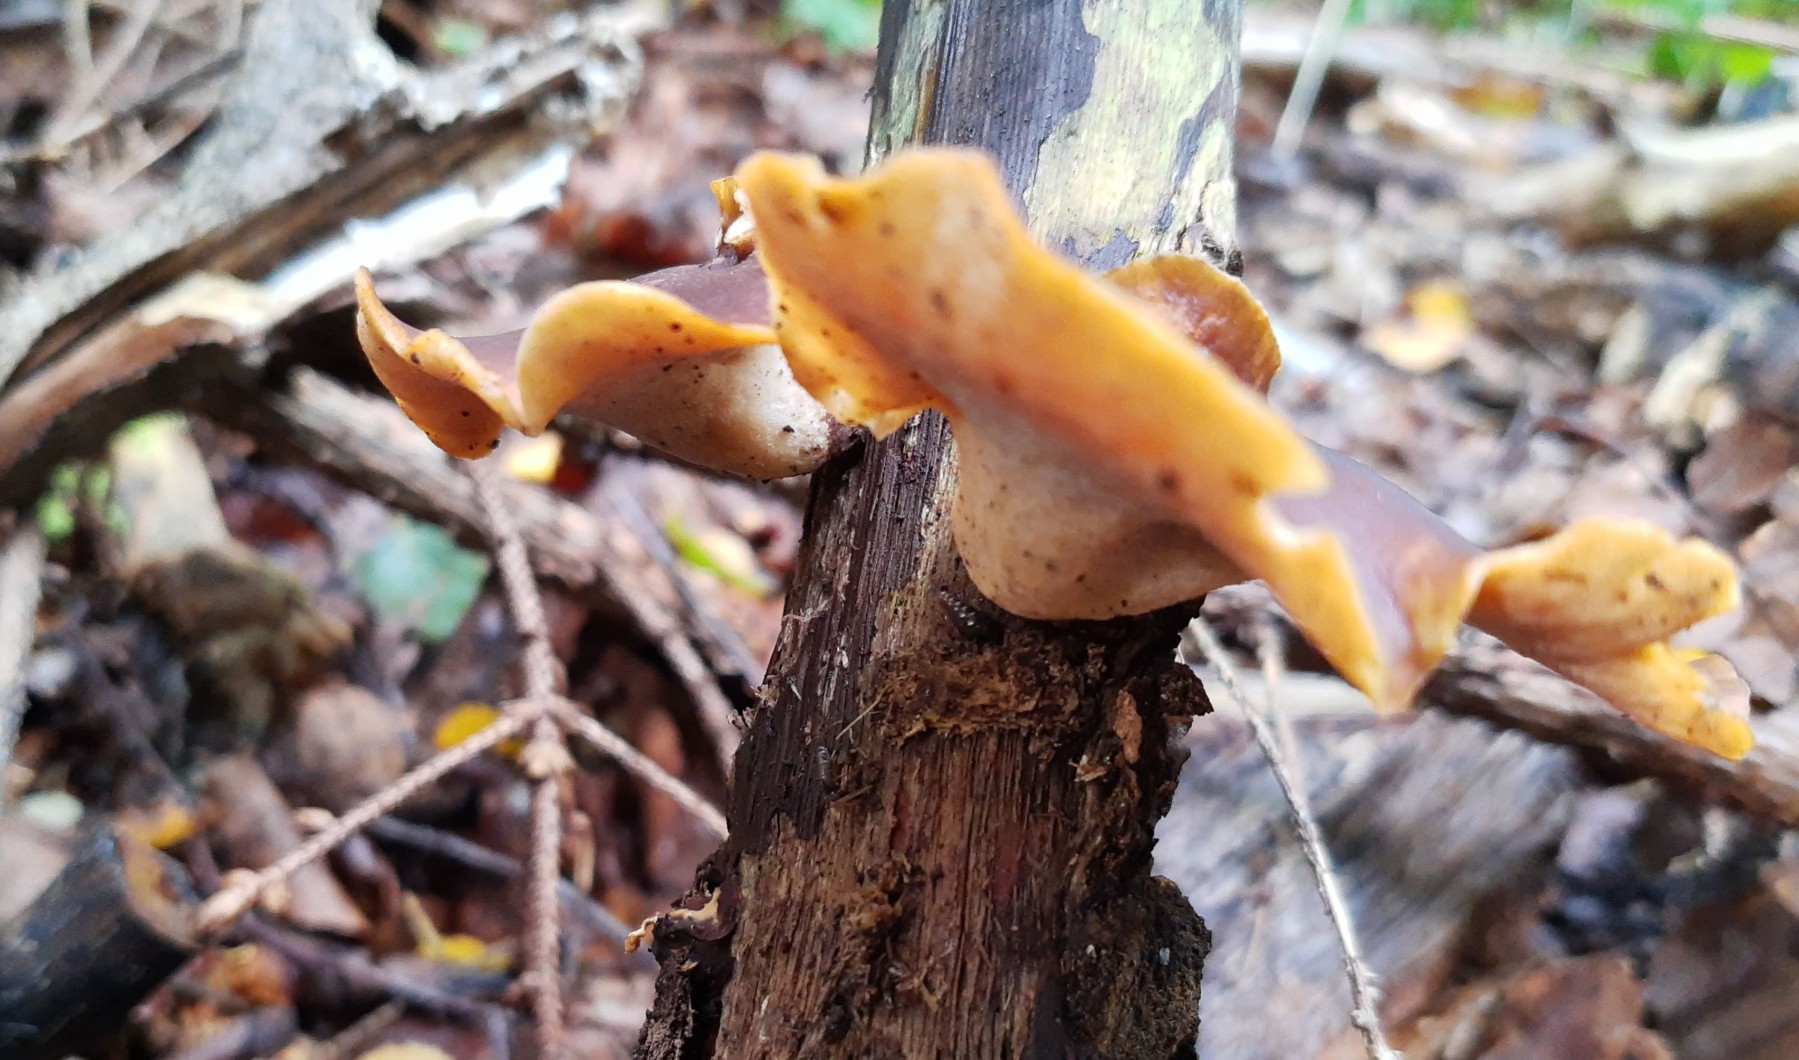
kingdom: Fungi
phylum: Basidiomycota
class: Agaricomycetes
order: Polyporales
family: Polyporaceae
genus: Picipes
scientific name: Picipes badius
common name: kastaniebrun stilkporesvamp
